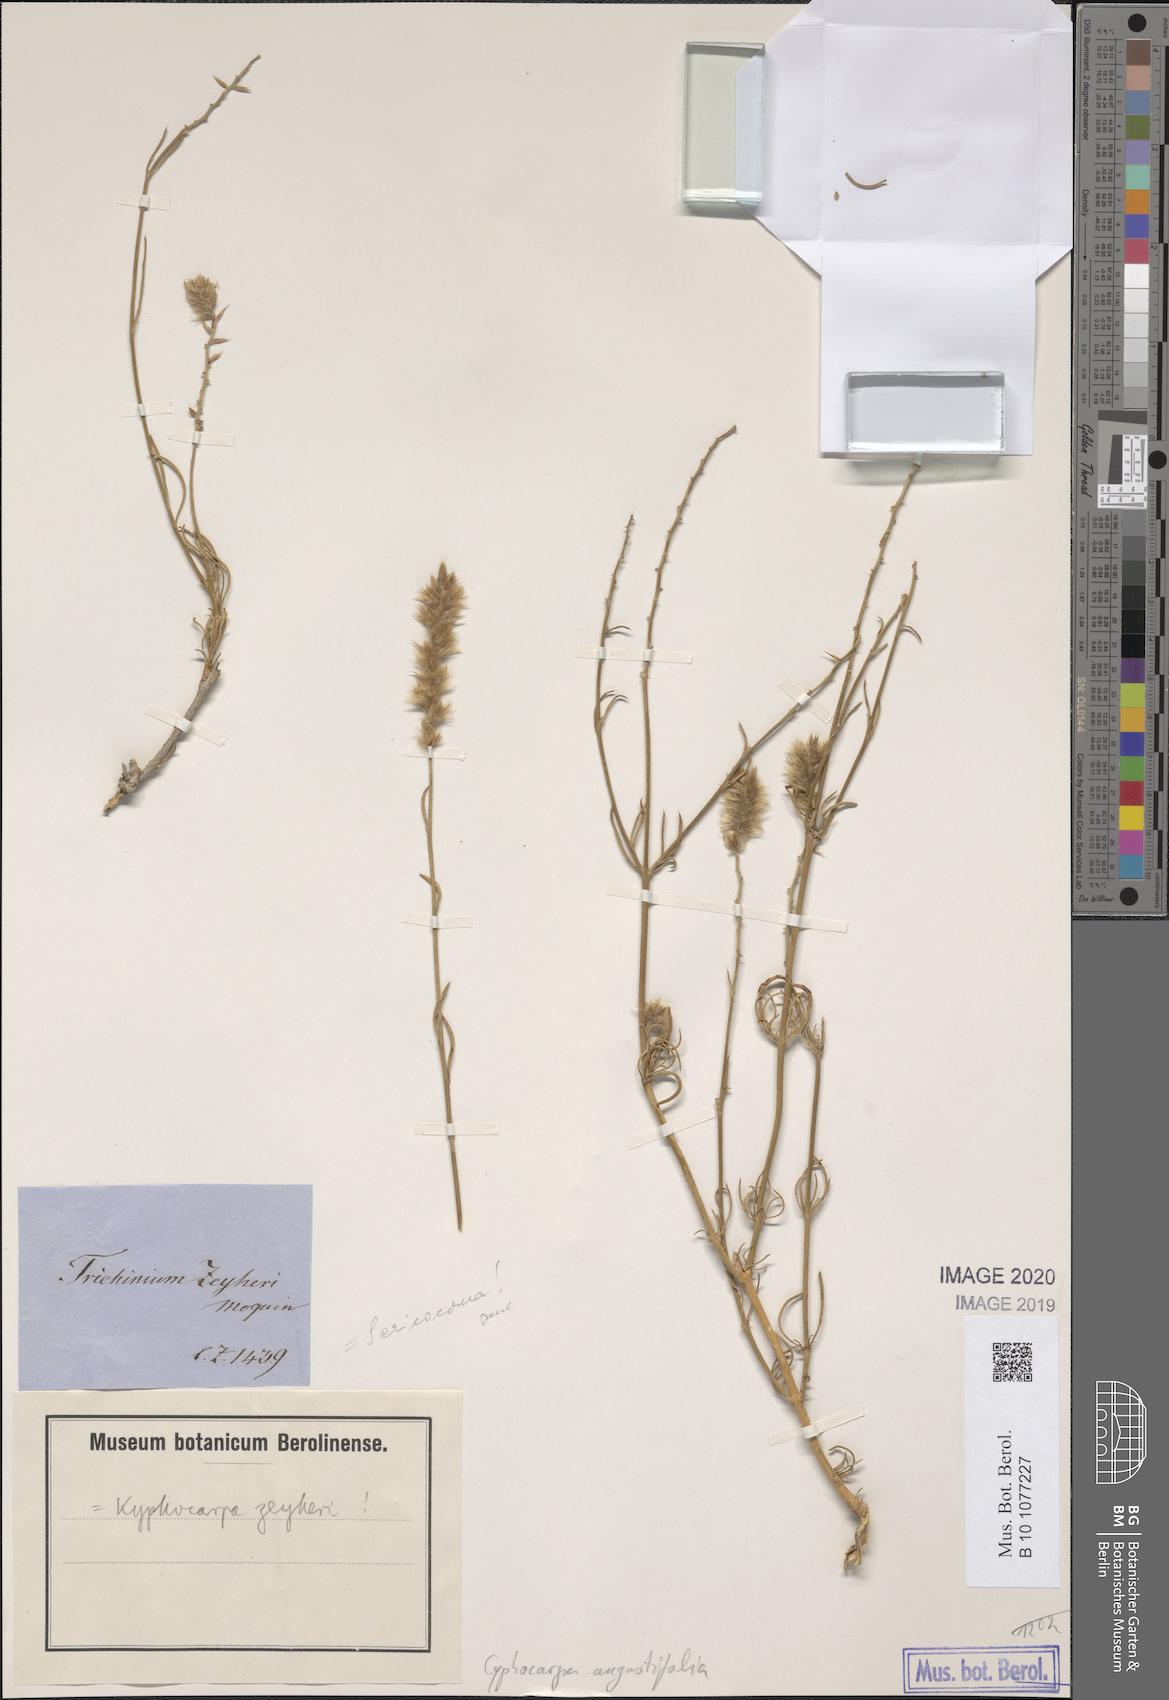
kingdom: Plantae
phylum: Tracheophyta
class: Magnoliopsida
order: Caryophyllales
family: Amaranthaceae
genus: Cyphocarpa
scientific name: Cyphocarpa angustifolia
